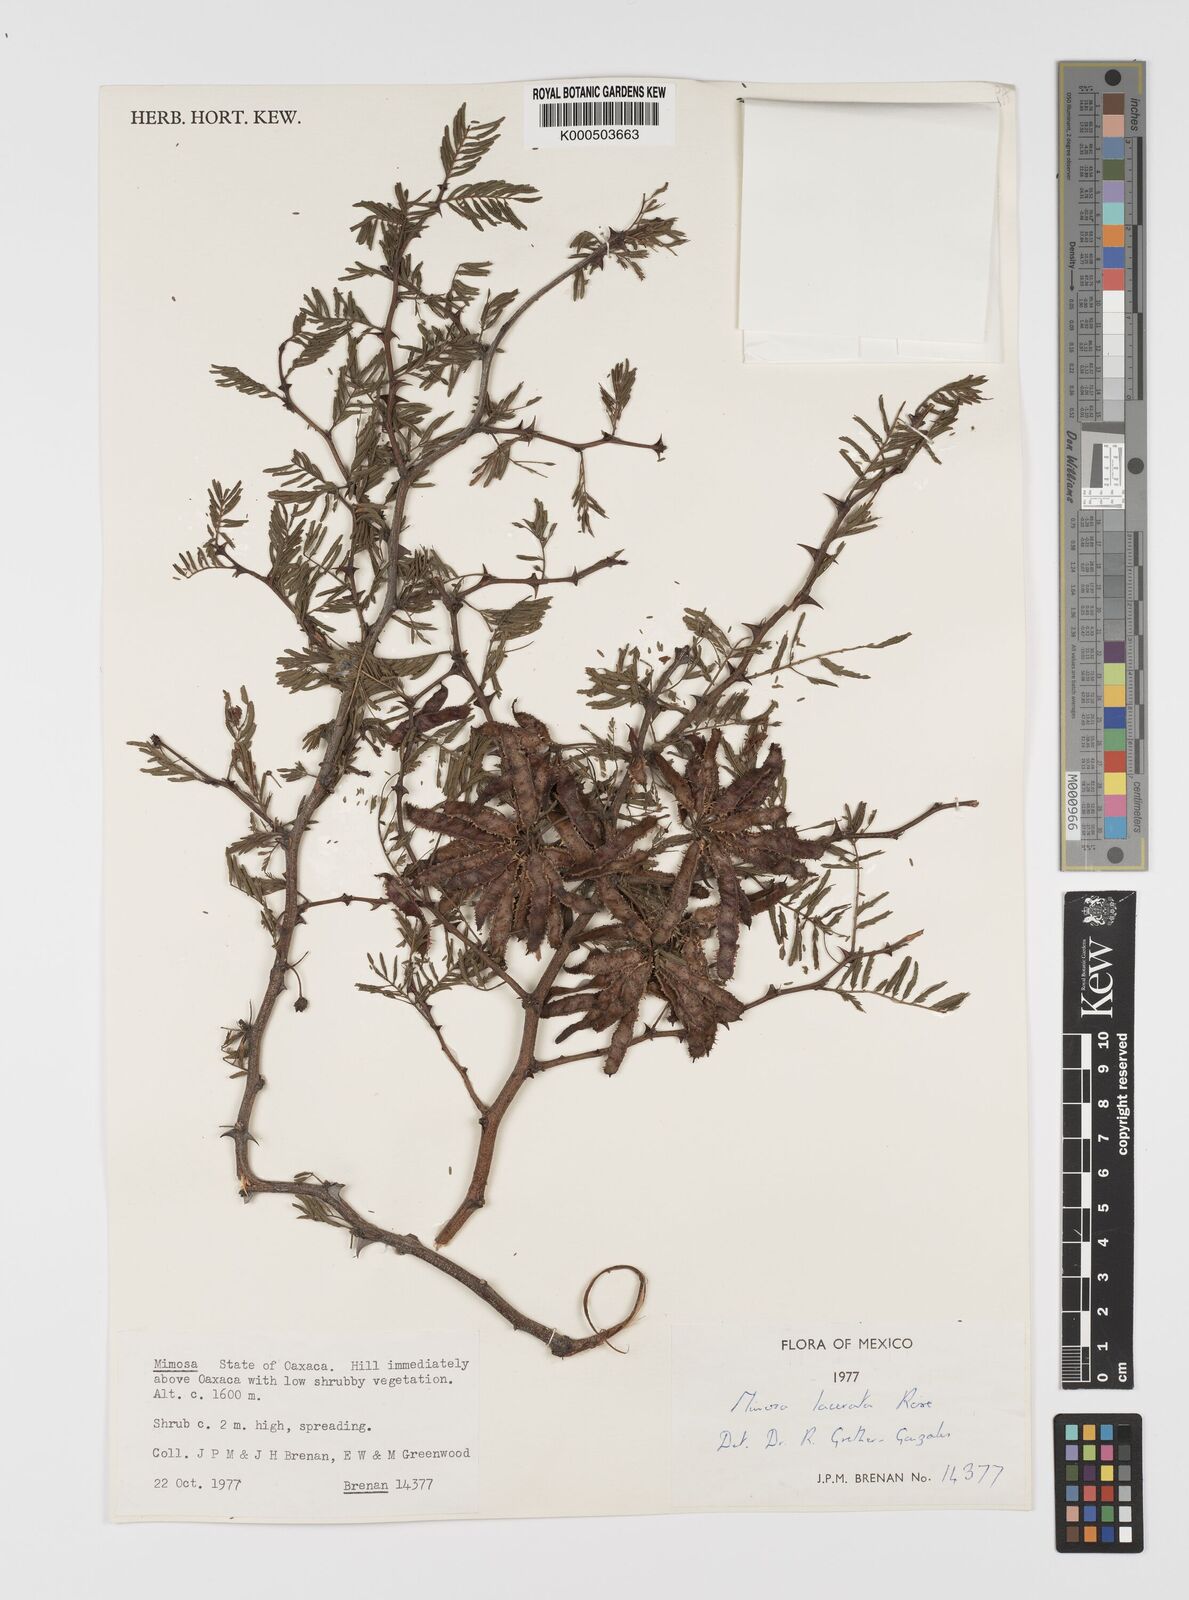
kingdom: Plantae
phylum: Tracheophyta
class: Magnoliopsida
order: Fabales
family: Fabaceae
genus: Mimosa
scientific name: Mimosa lacerata
